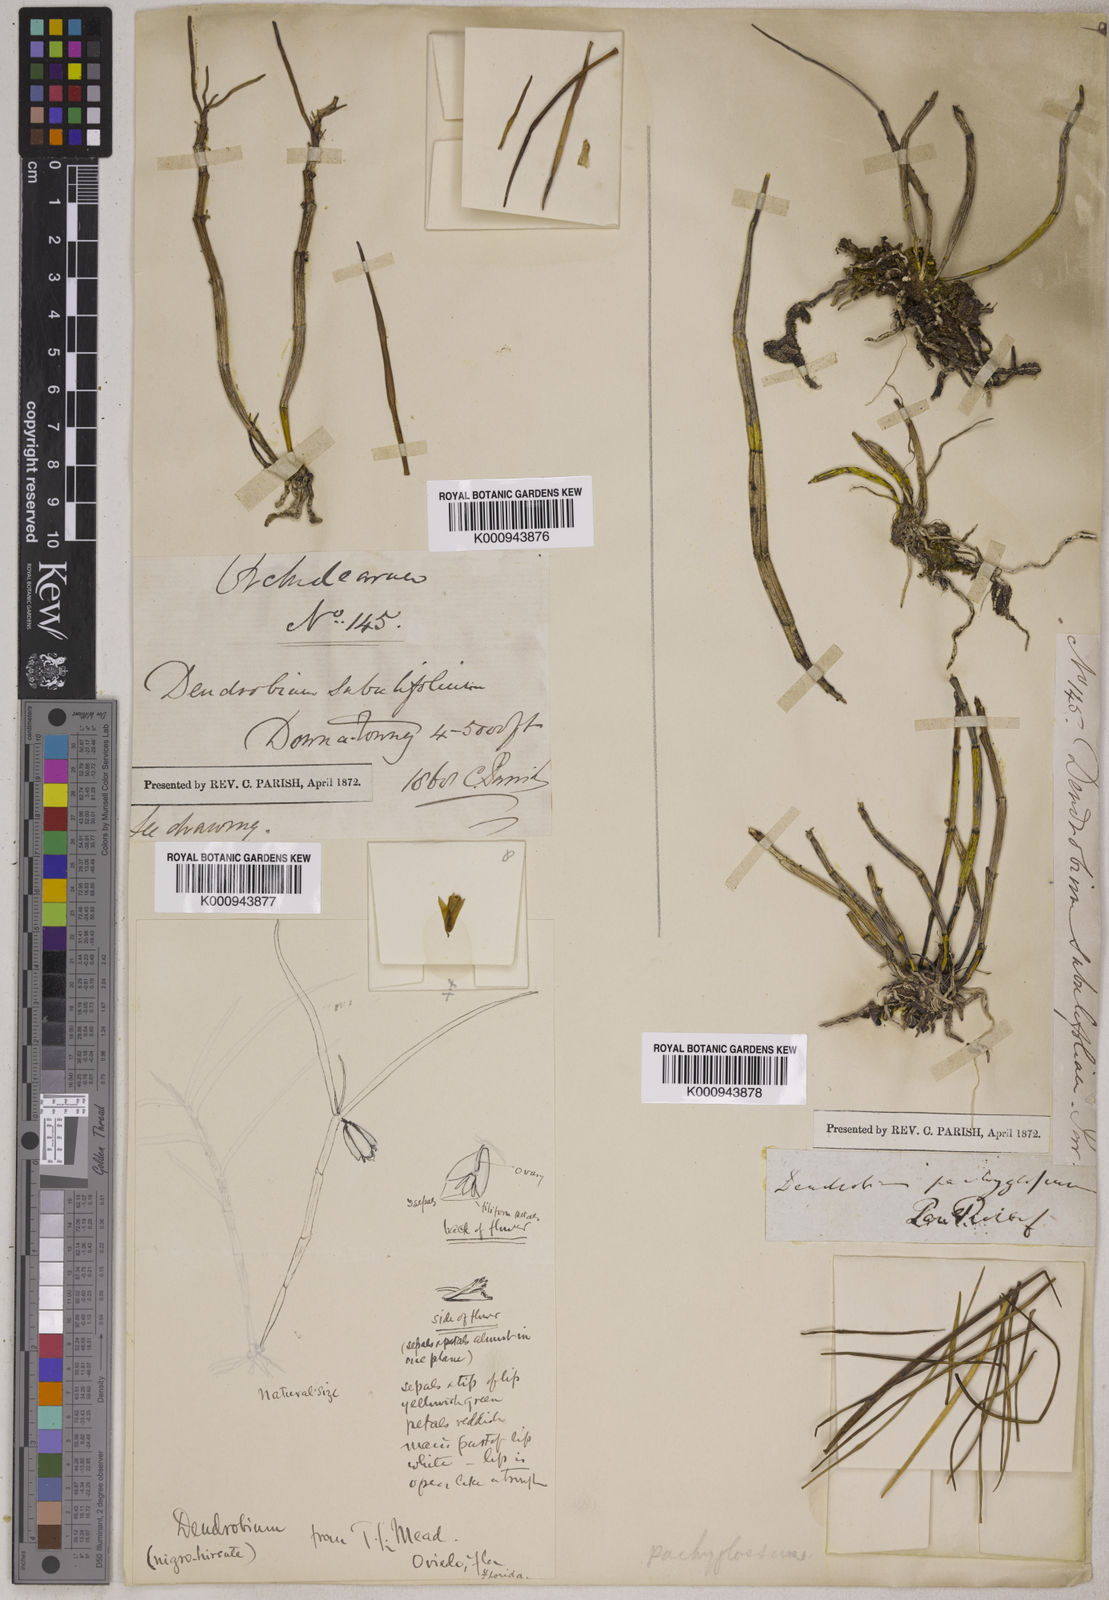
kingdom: Plantae
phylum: Tracheophyta
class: Liliopsida
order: Asparagales
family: Orchidaceae
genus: Dendrobium
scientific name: Dendrobium pachyglossum
